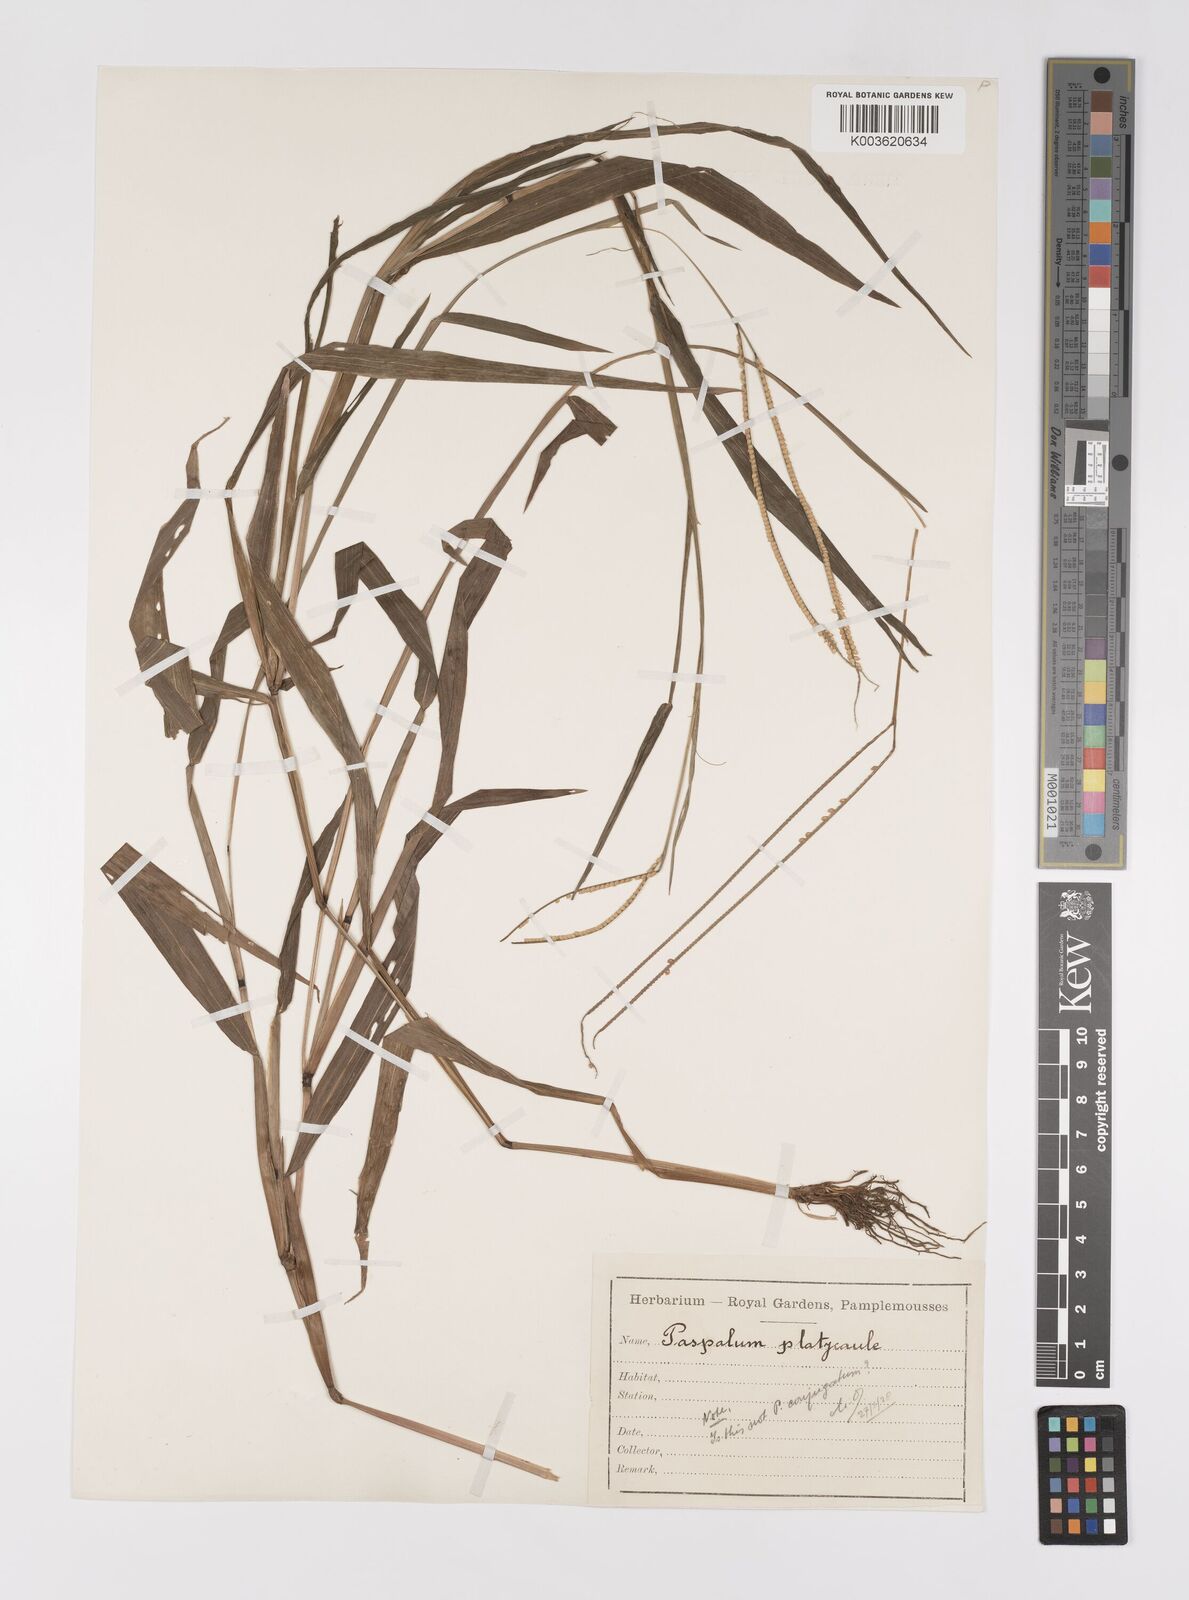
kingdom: Plantae
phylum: Tracheophyta
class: Liliopsida
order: Poales
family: Poaceae
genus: Paspalum
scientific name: Paspalum conjugatum
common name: Hilograss
